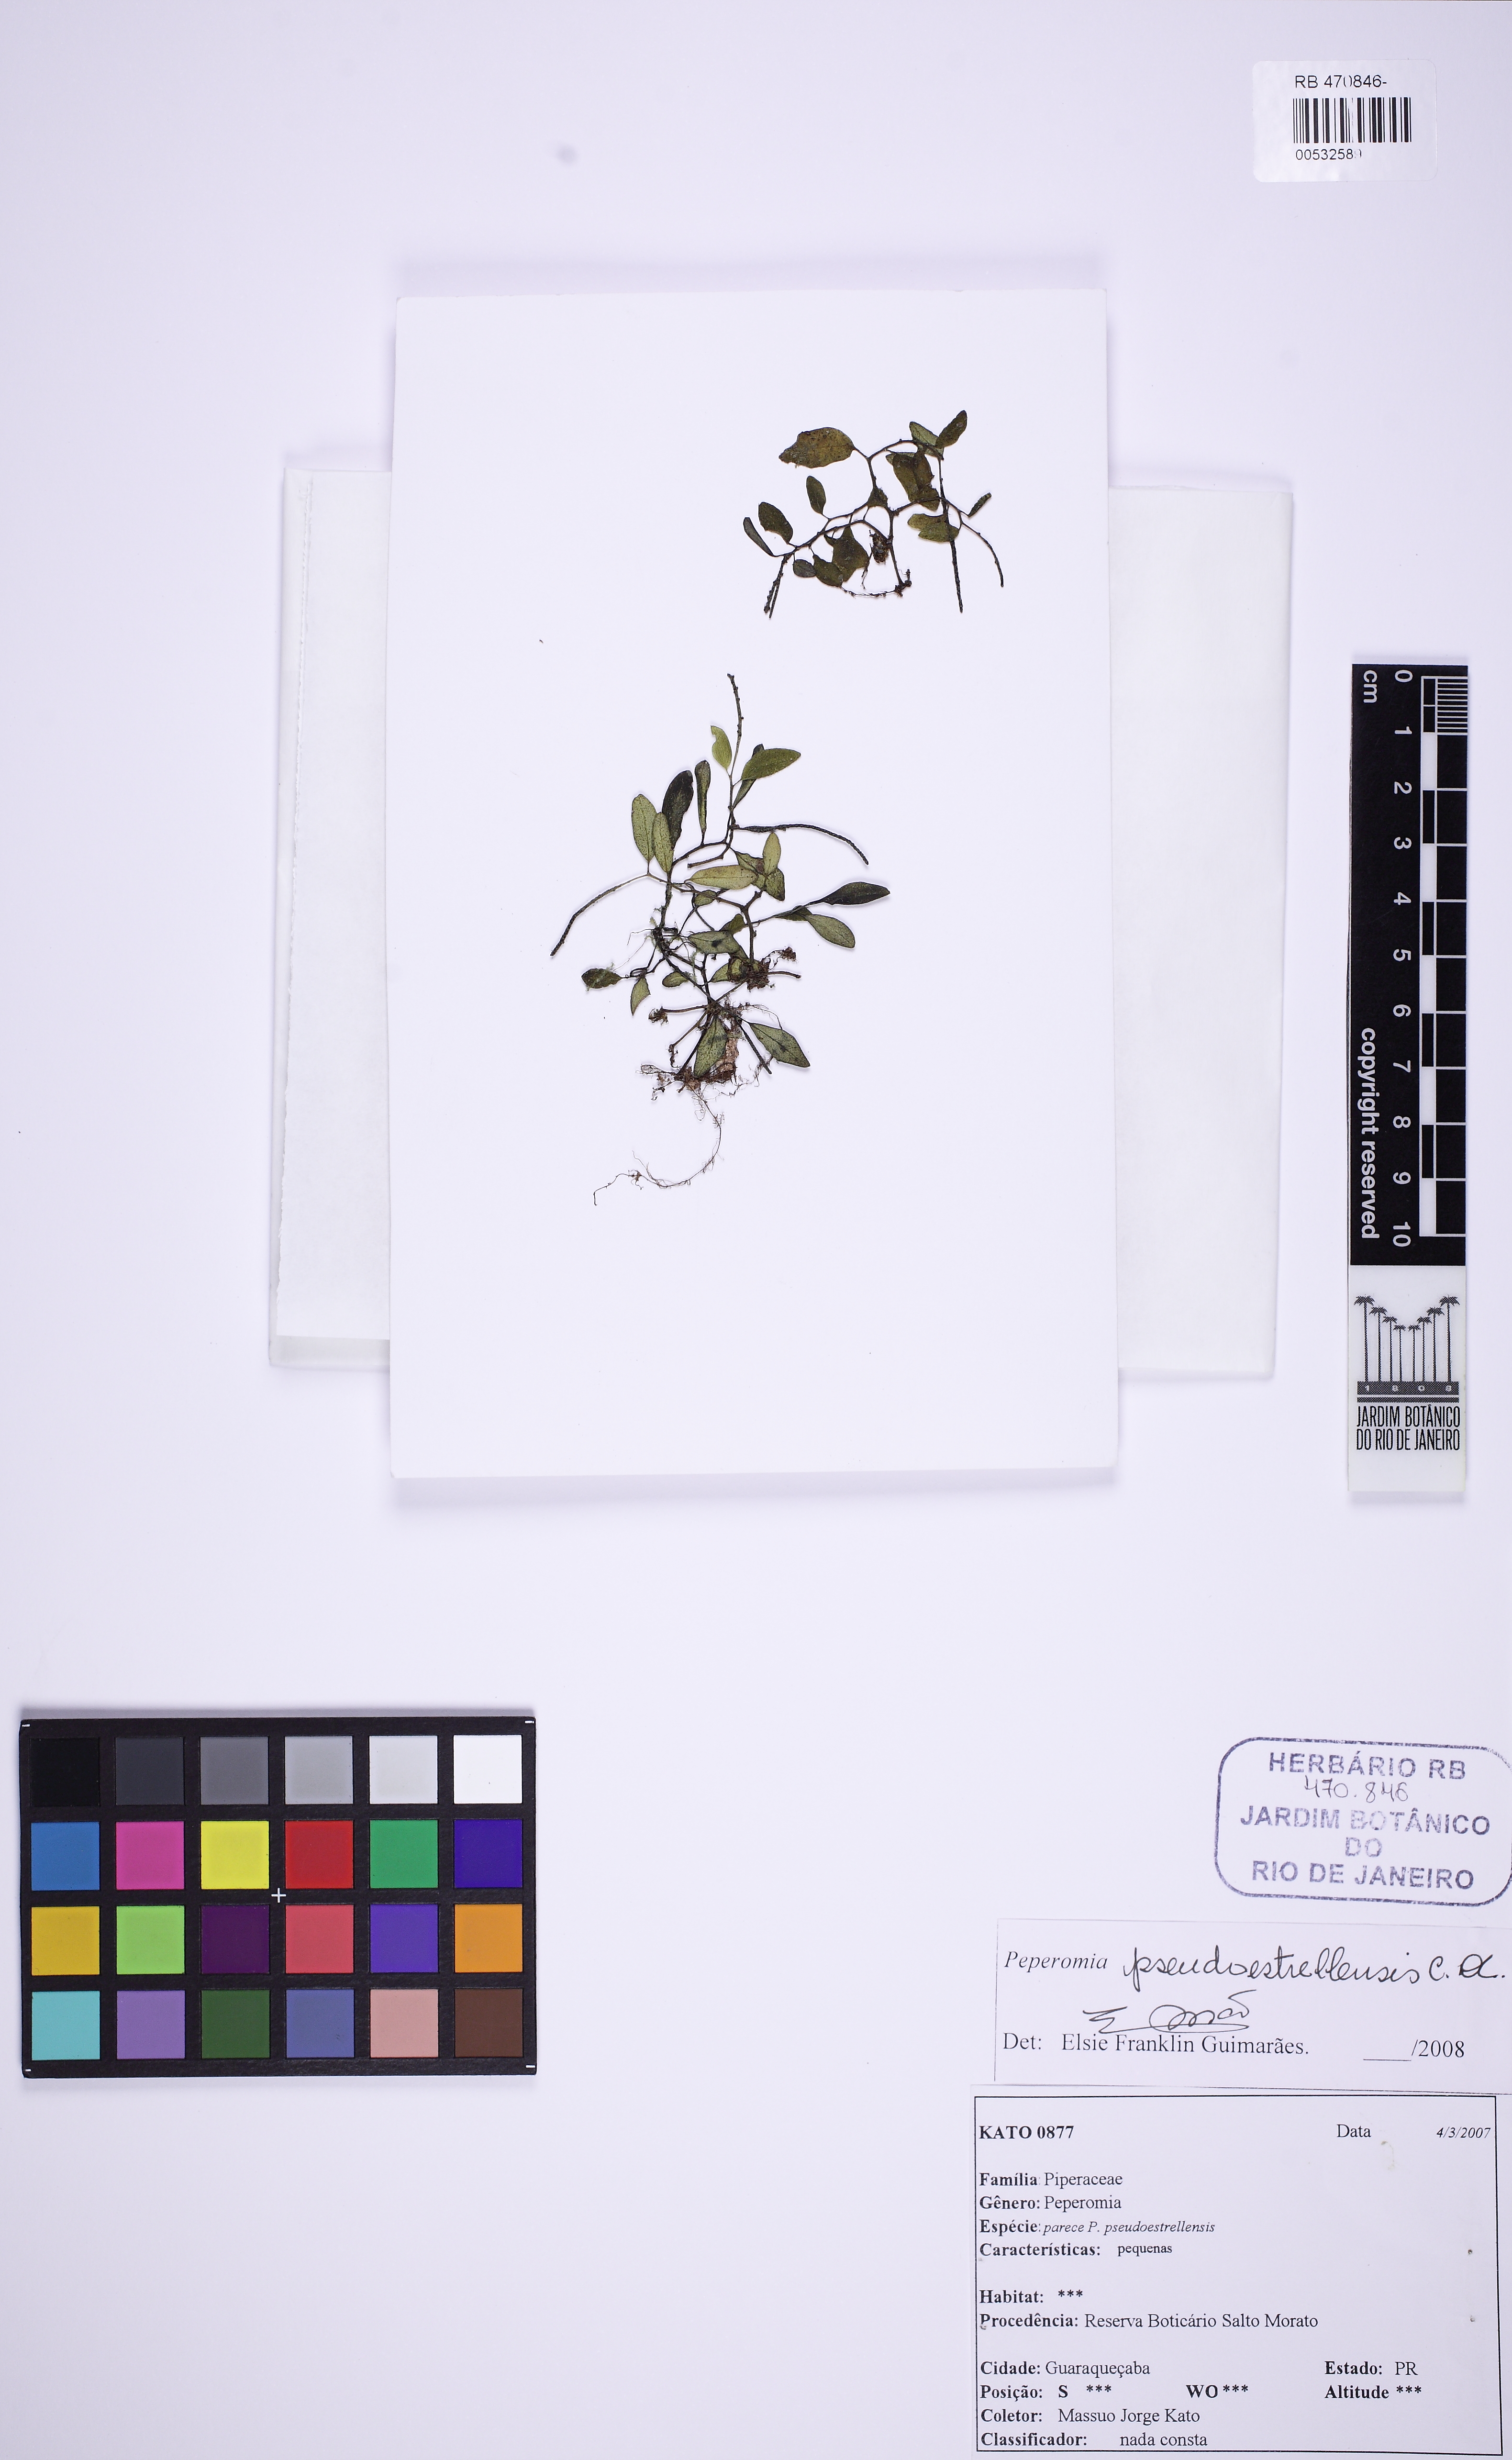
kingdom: Plantae
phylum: Tracheophyta
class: Magnoliopsida
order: Piperales
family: Piperaceae
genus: Peperomia
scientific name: Peperomia pseudoestrellensis
